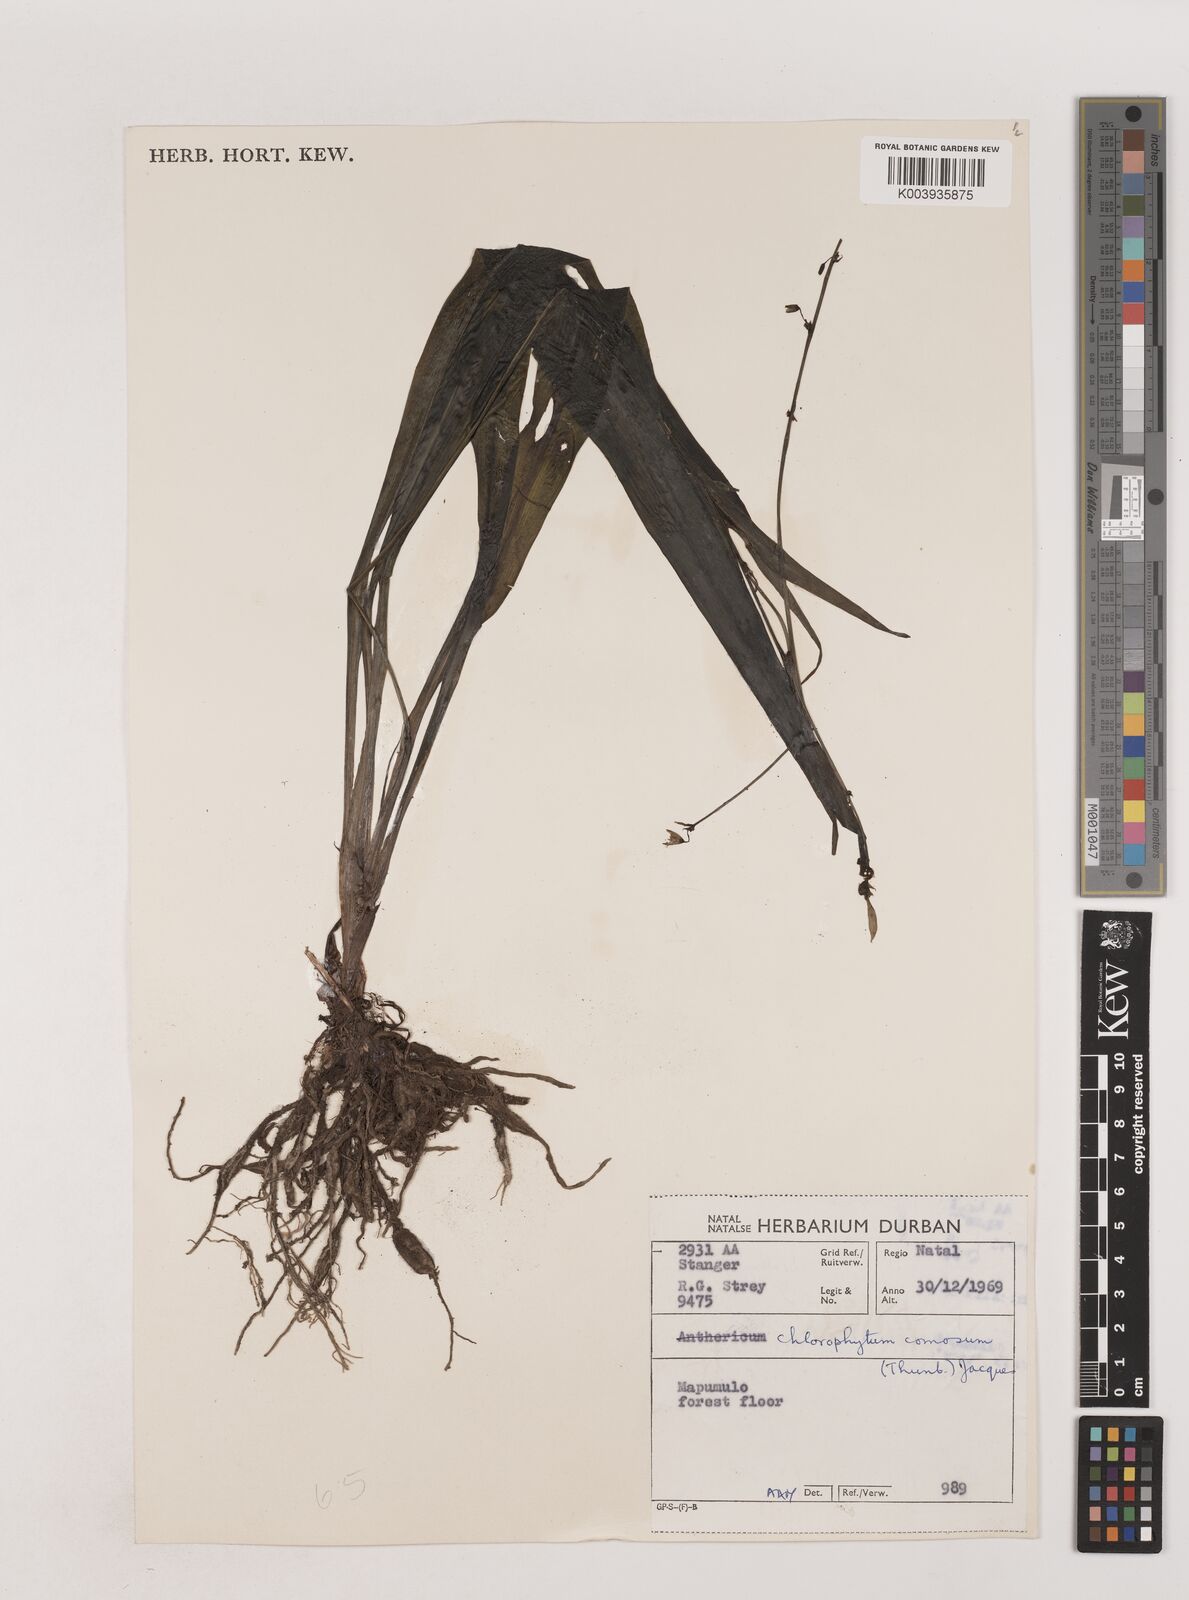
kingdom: Plantae
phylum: Tracheophyta
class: Liliopsida
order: Asparagales
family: Asparagaceae
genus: Chlorophytum
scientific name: Chlorophytum comosum
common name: Spider plant
